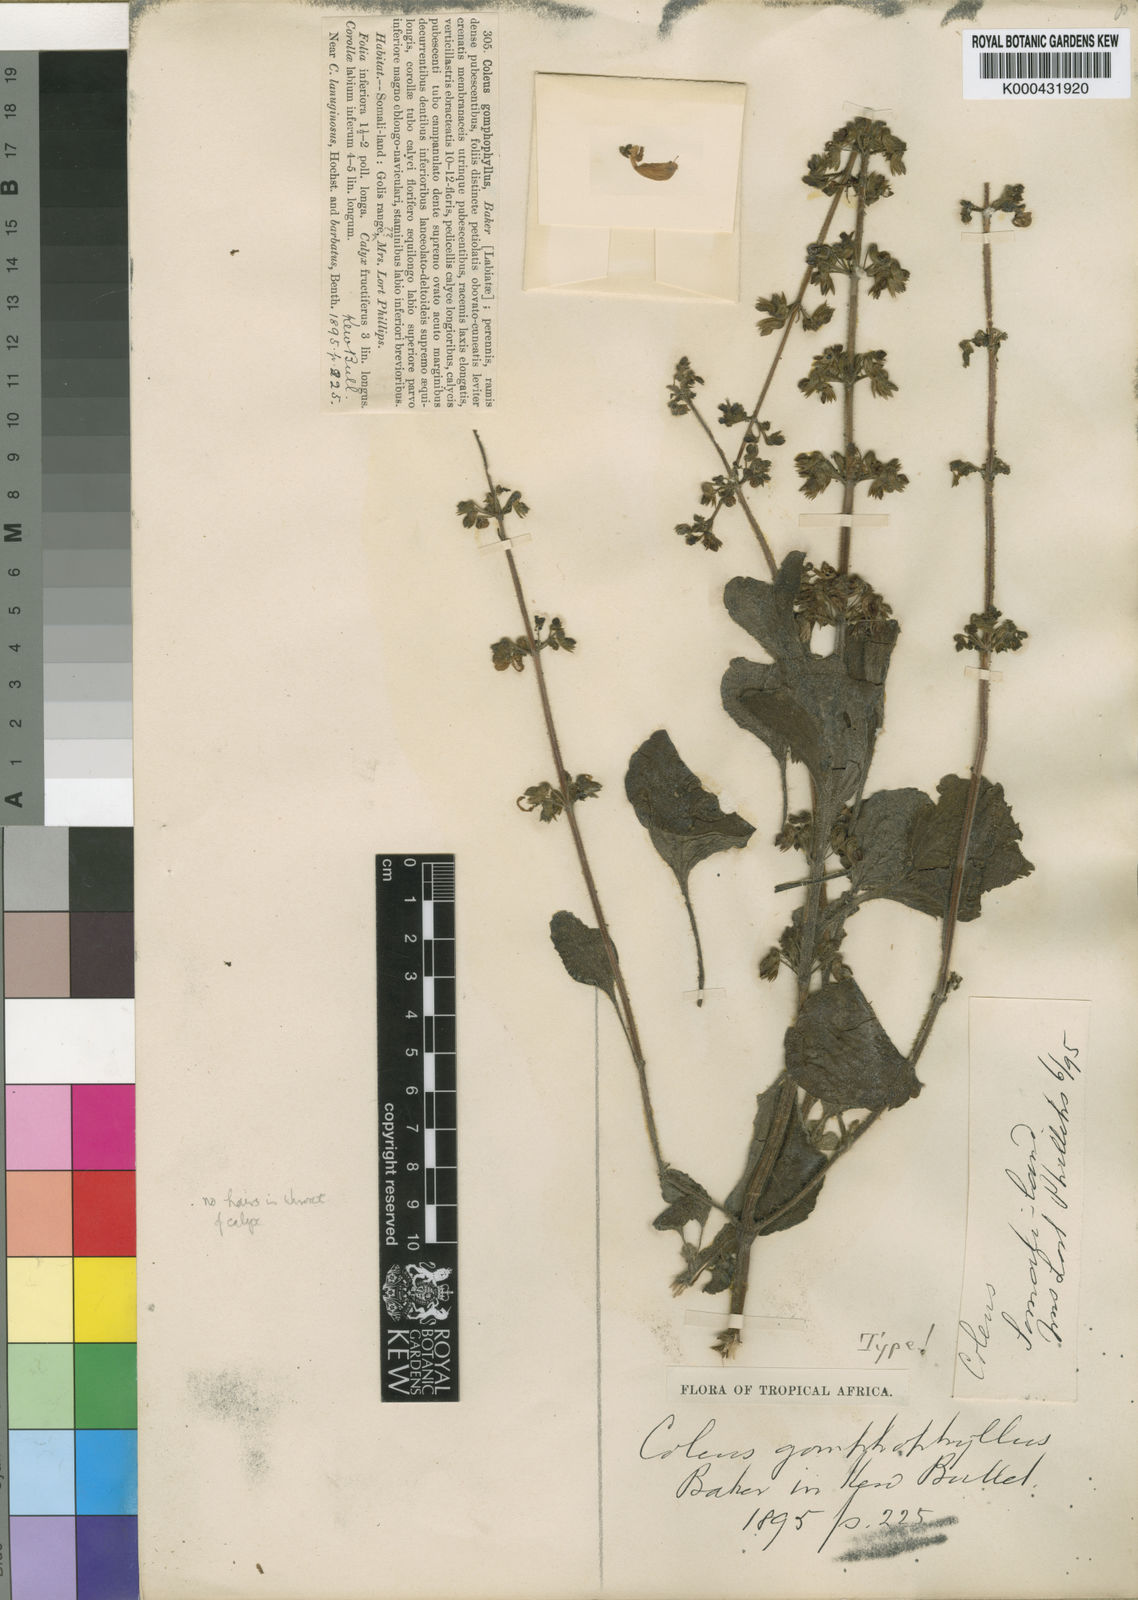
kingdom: Plantae
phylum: Tracheophyta
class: Magnoliopsida
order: Lamiales
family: Lamiaceae
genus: Coleus
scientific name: Coleus lanuginosus
